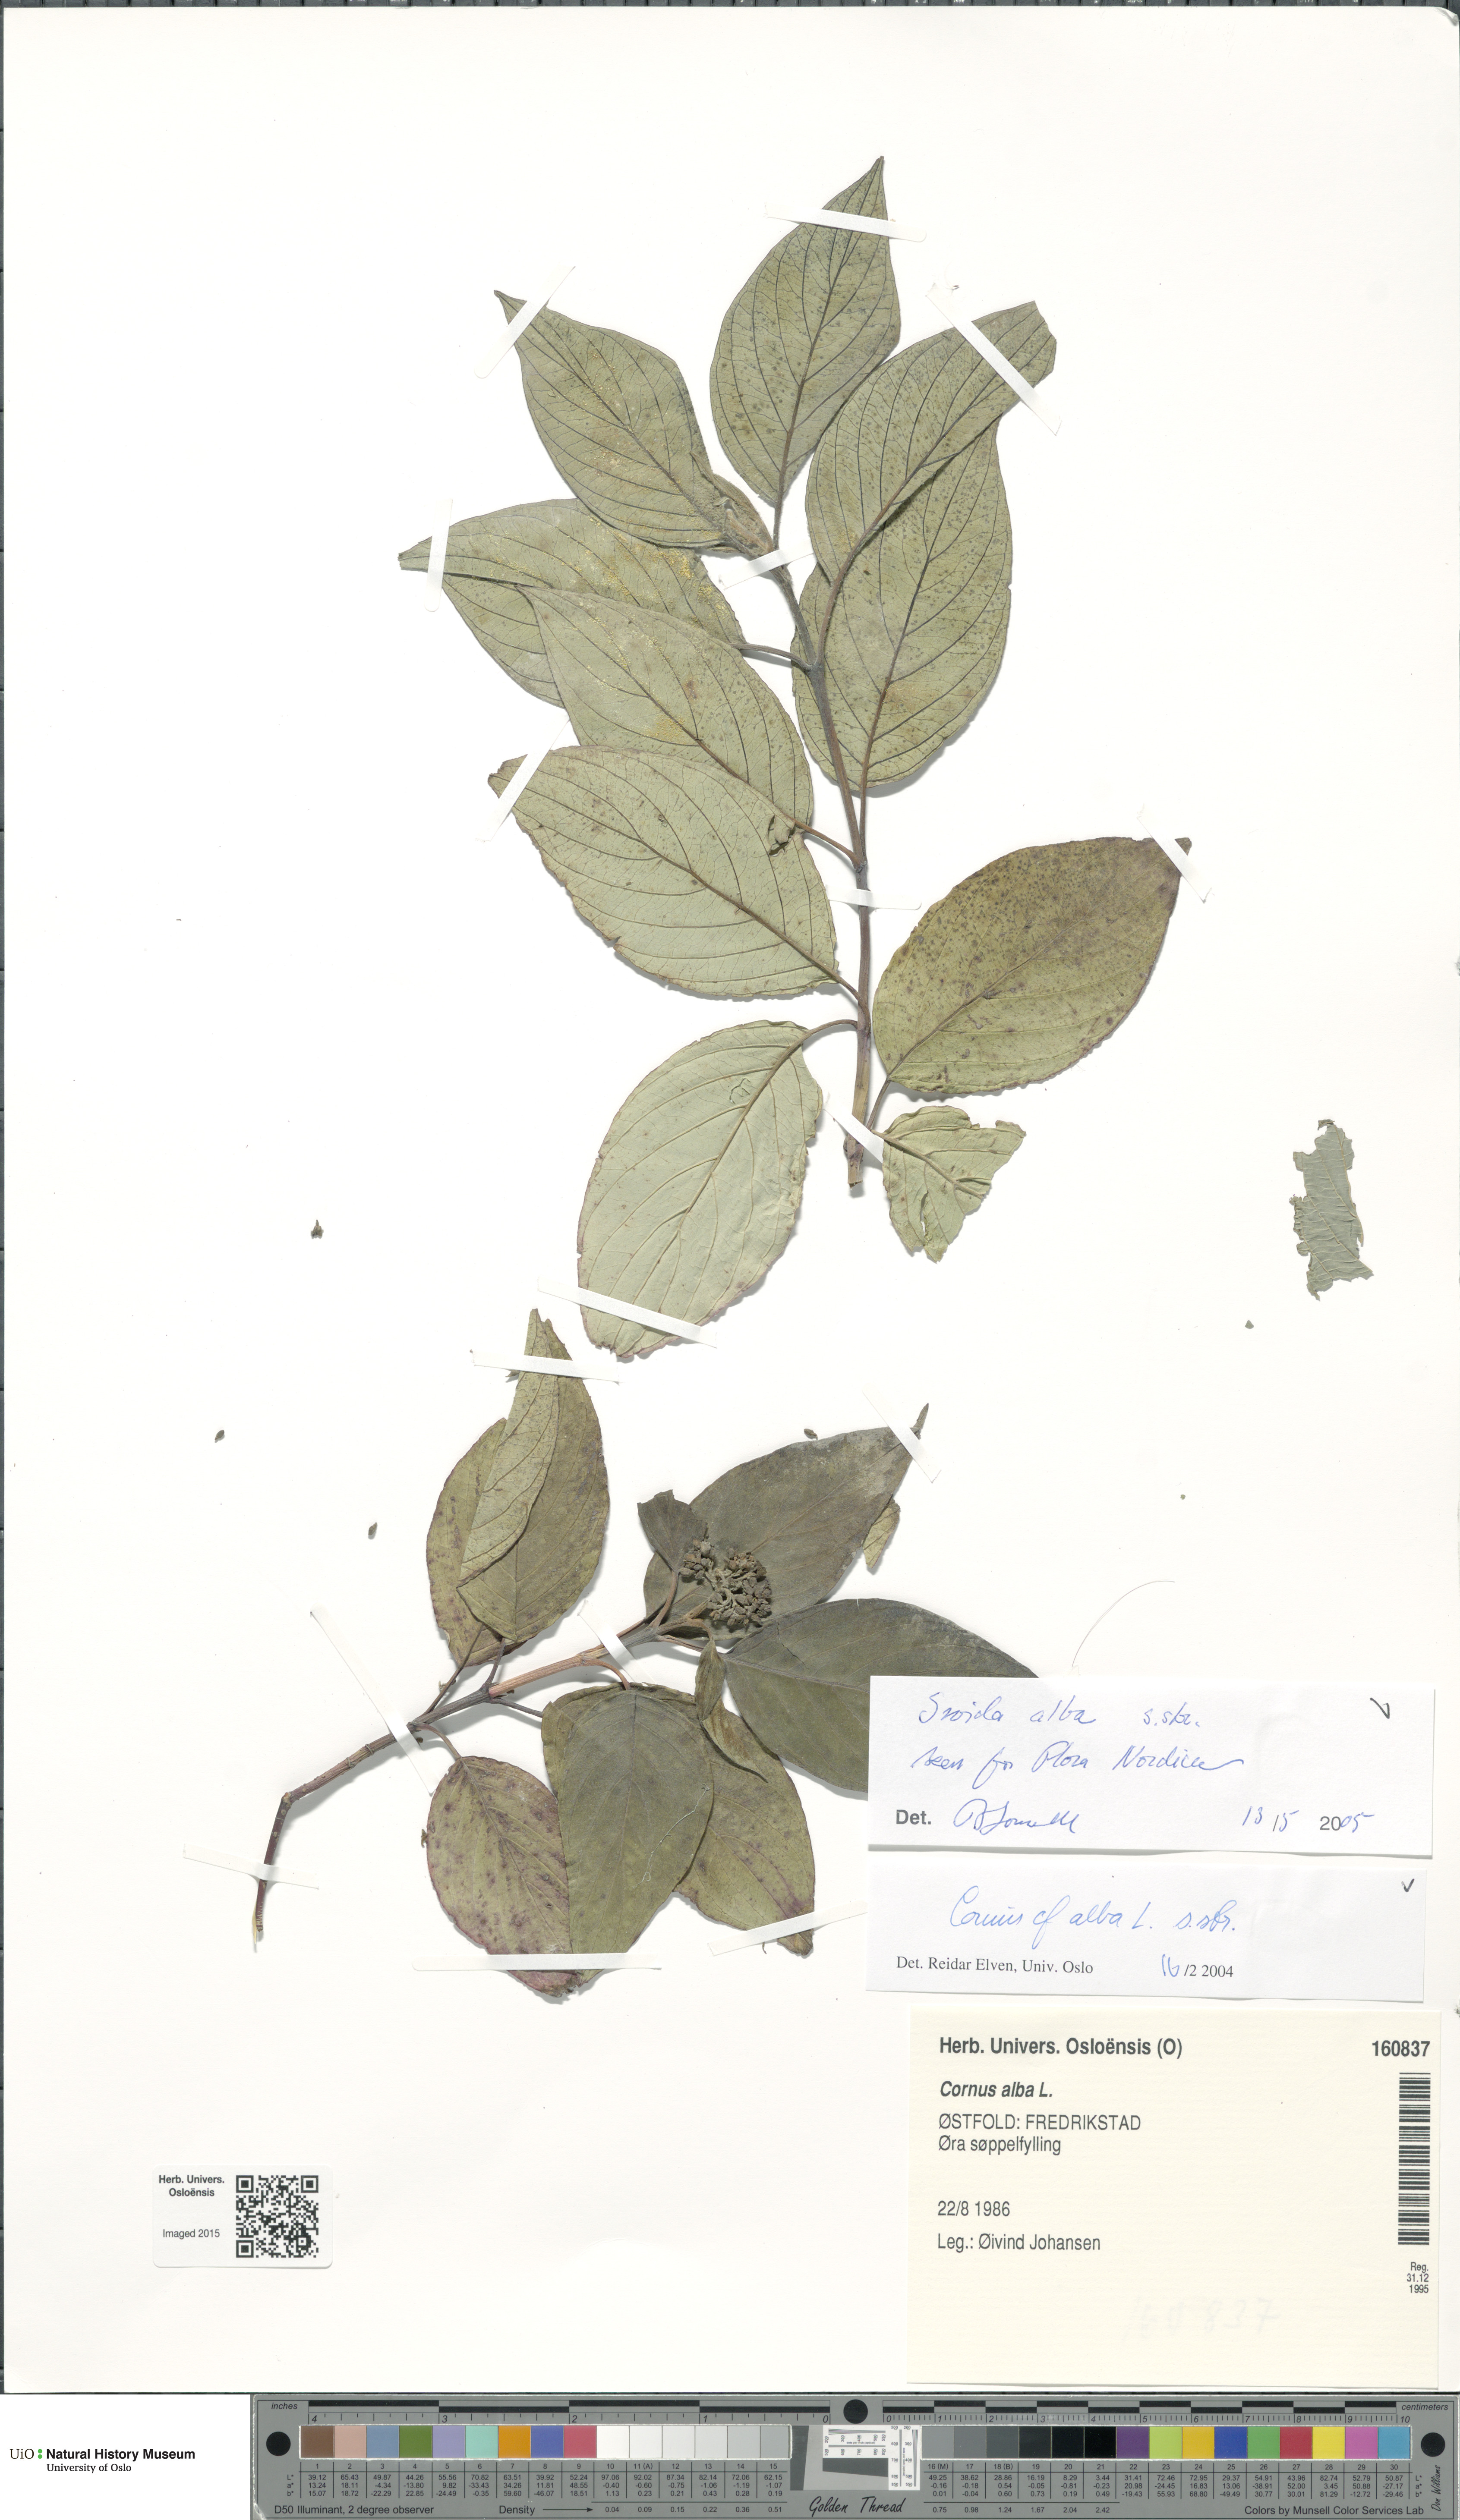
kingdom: Plantae
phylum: Tracheophyta
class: Magnoliopsida
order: Cornales
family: Cornaceae
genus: Cornus
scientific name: Cornus sericea
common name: Red-osier dogwood
